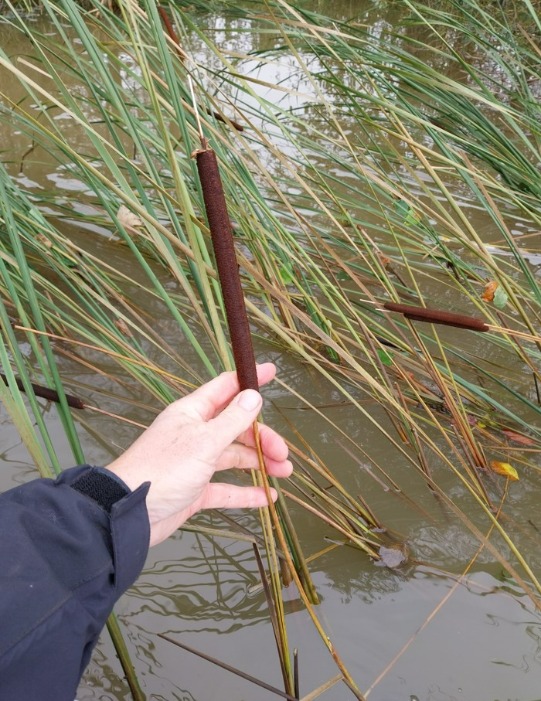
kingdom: Plantae
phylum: Tracheophyta
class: Liliopsida
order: Poales
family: Typhaceae
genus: Typha
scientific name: Typha angustifolia
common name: Smalbladet dunhammer
